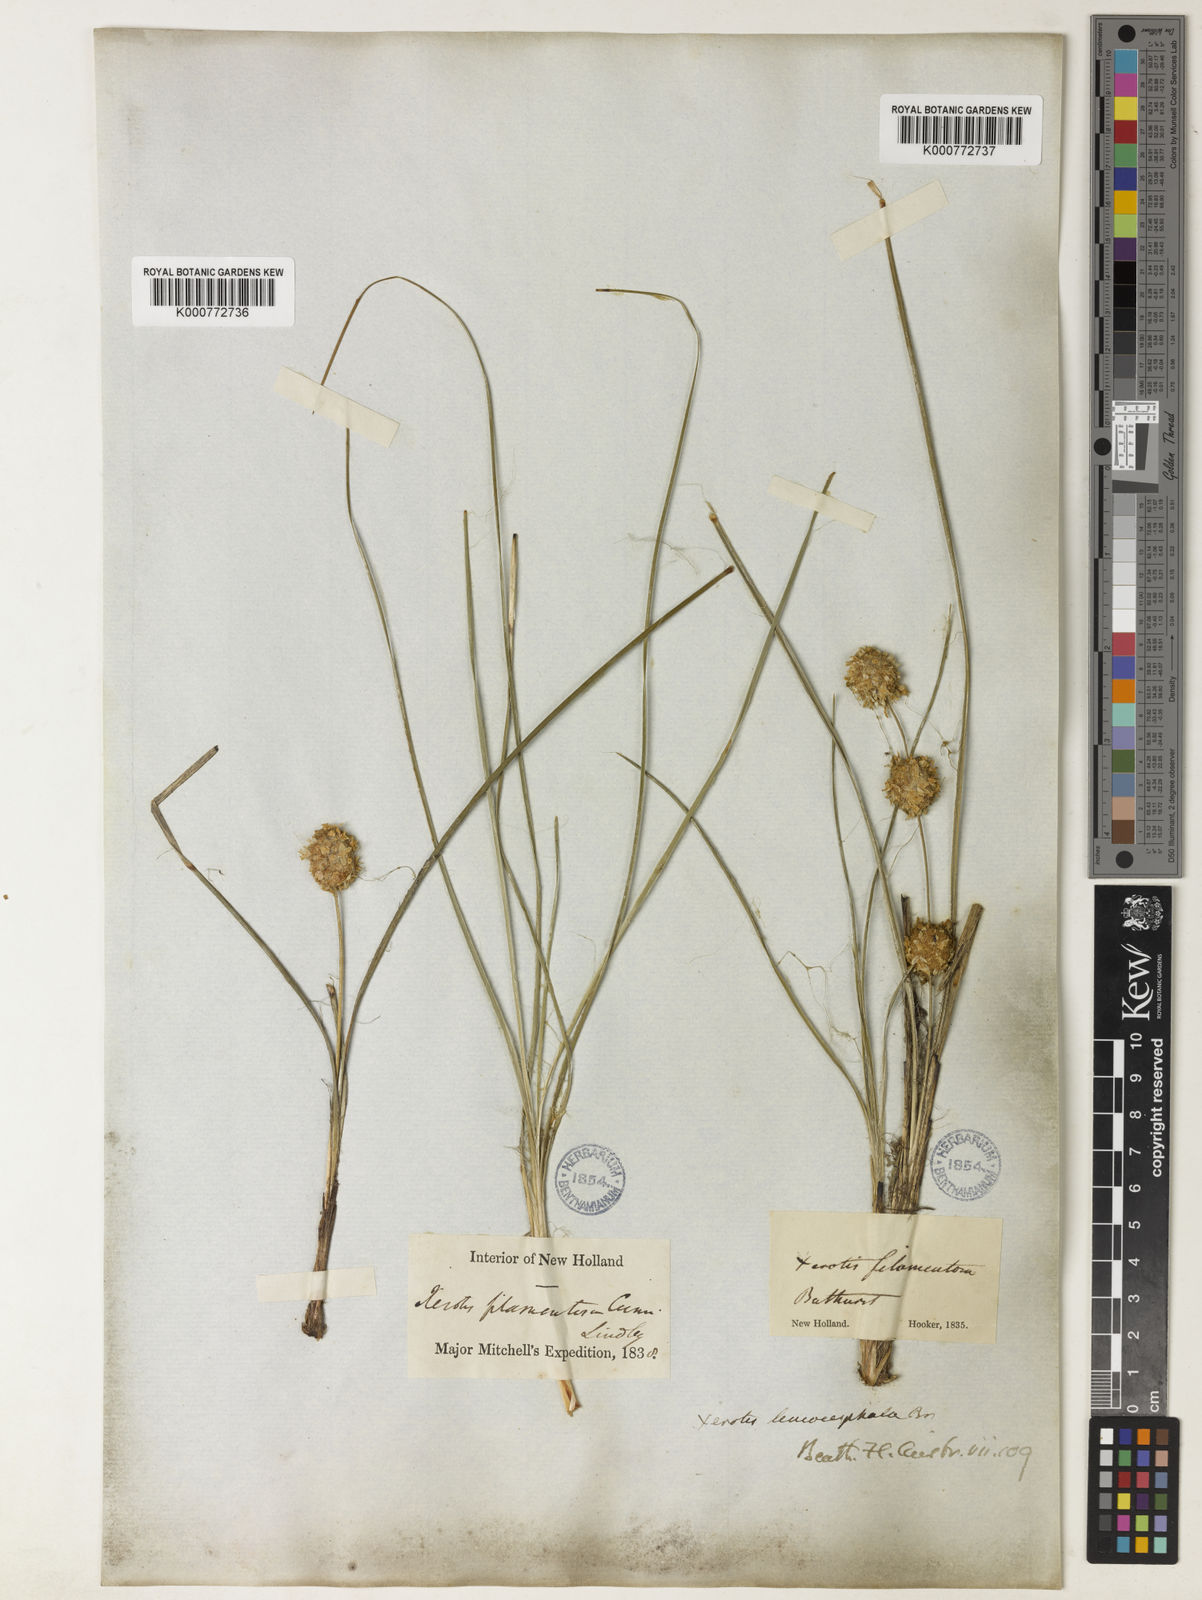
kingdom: Plantae
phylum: Tracheophyta
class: Liliopsida
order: Asparagales
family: Asparagaceae
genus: Lomandra
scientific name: Lomandra leucocephala
